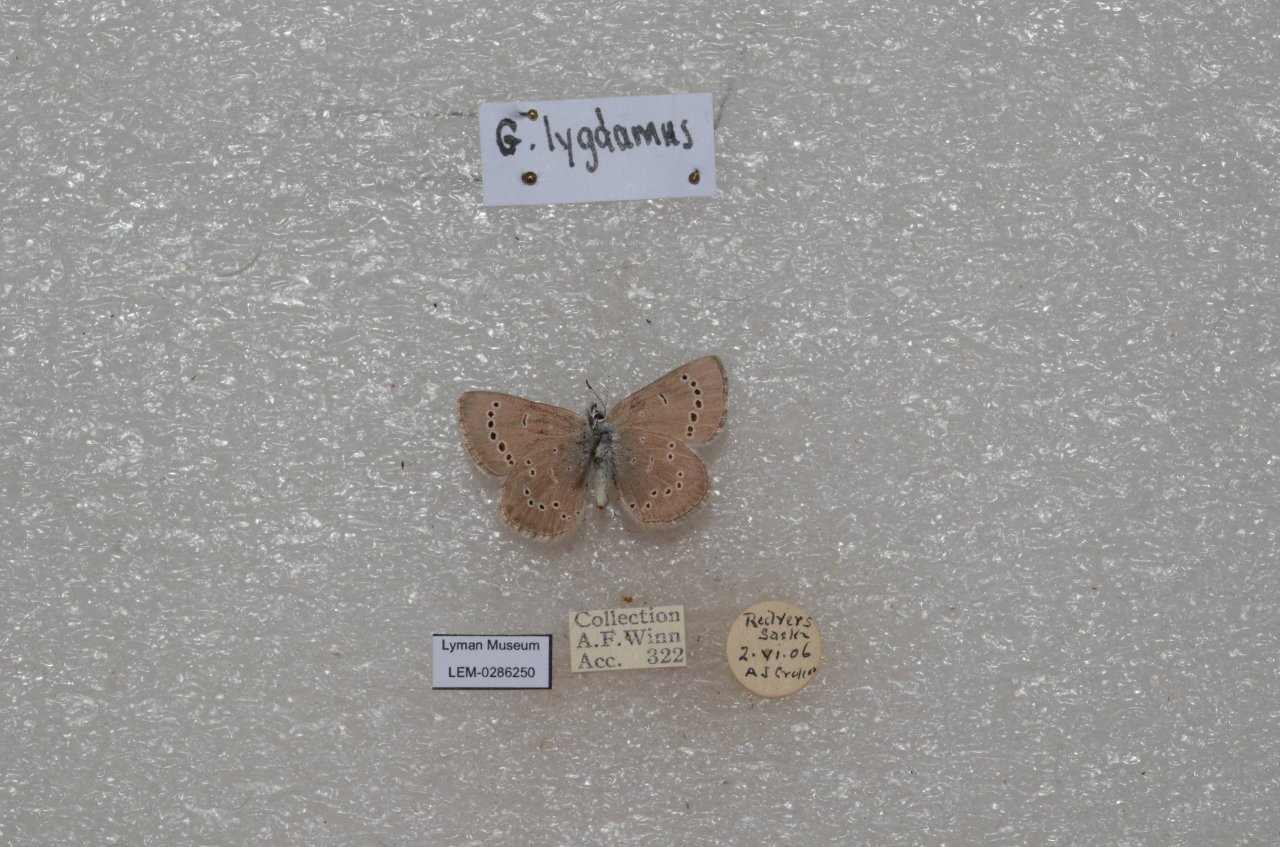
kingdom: Animalia
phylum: Arthropoda
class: Insecta
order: Lepidoptera
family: Lycaenidae
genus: Glaucopsyche
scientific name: Glaucopsyche lygdamus
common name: Silvery Blue
